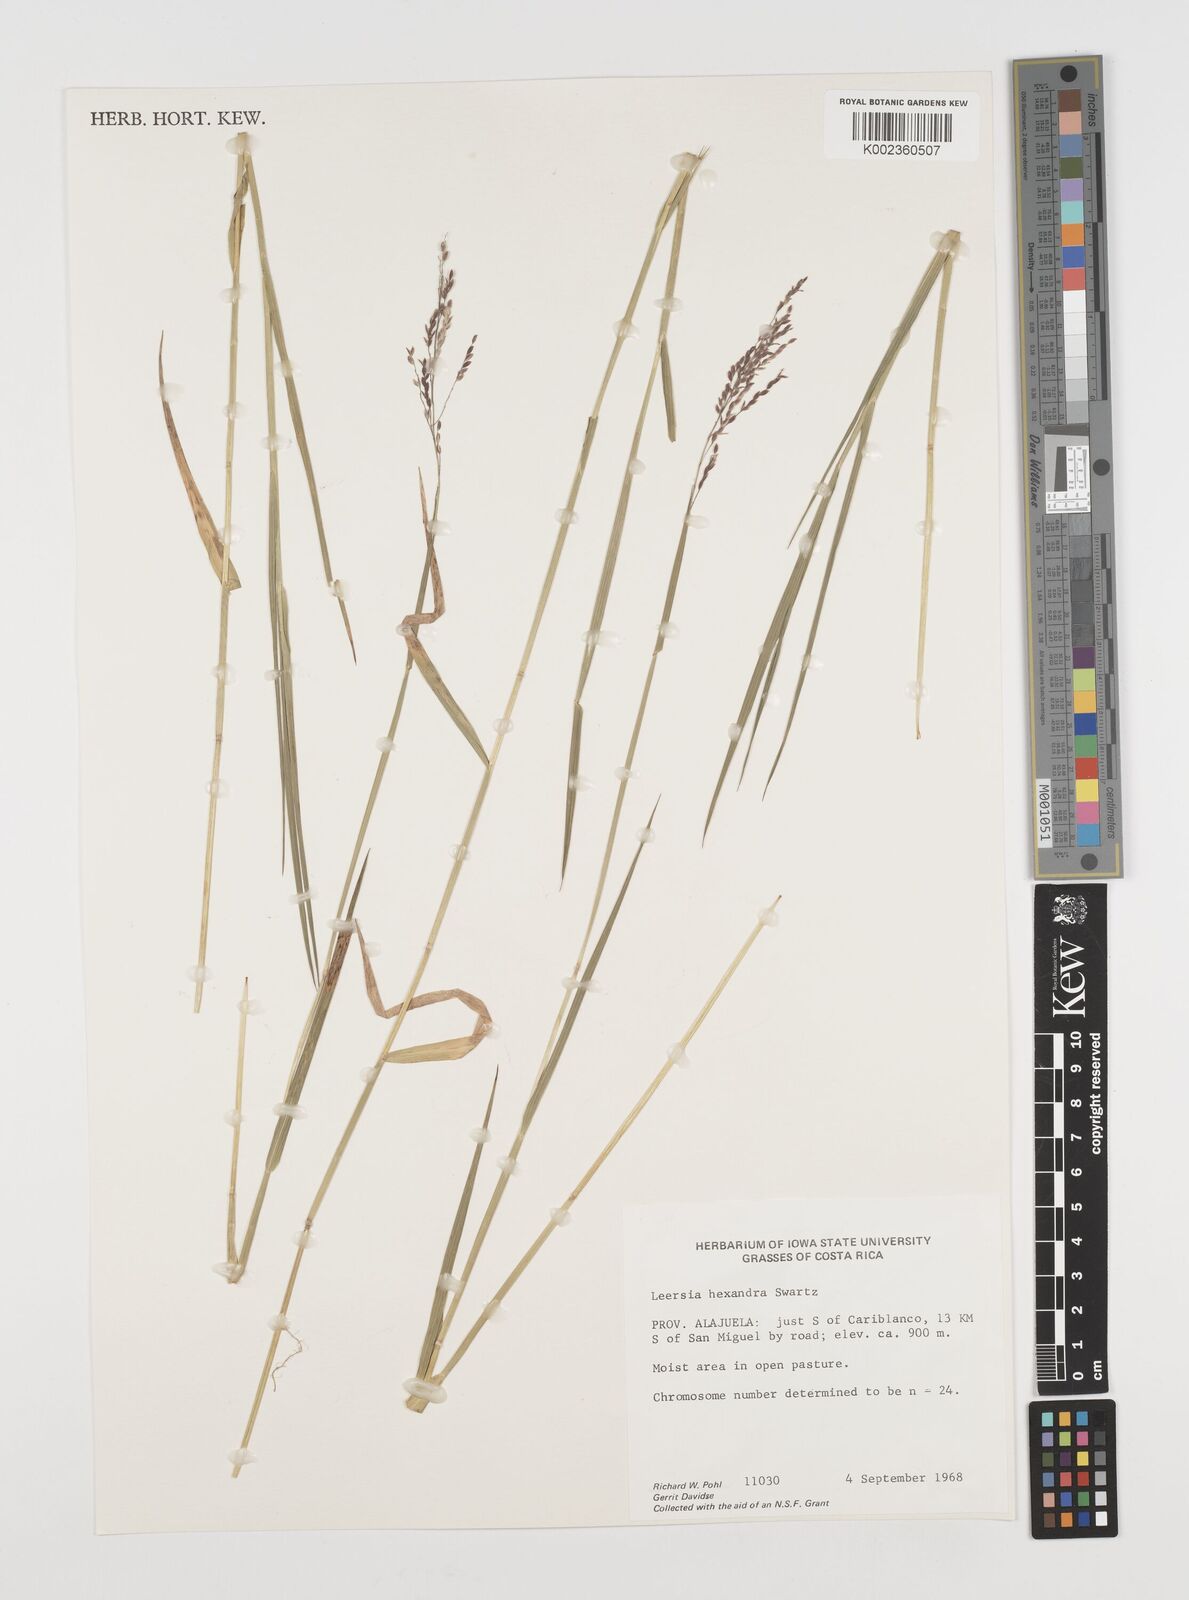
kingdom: Plantae
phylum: Tracheophyta
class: Liliopsida
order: Poales
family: Poaceae
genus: Leersia
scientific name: Leersia hexandra
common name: Southern cut grass
